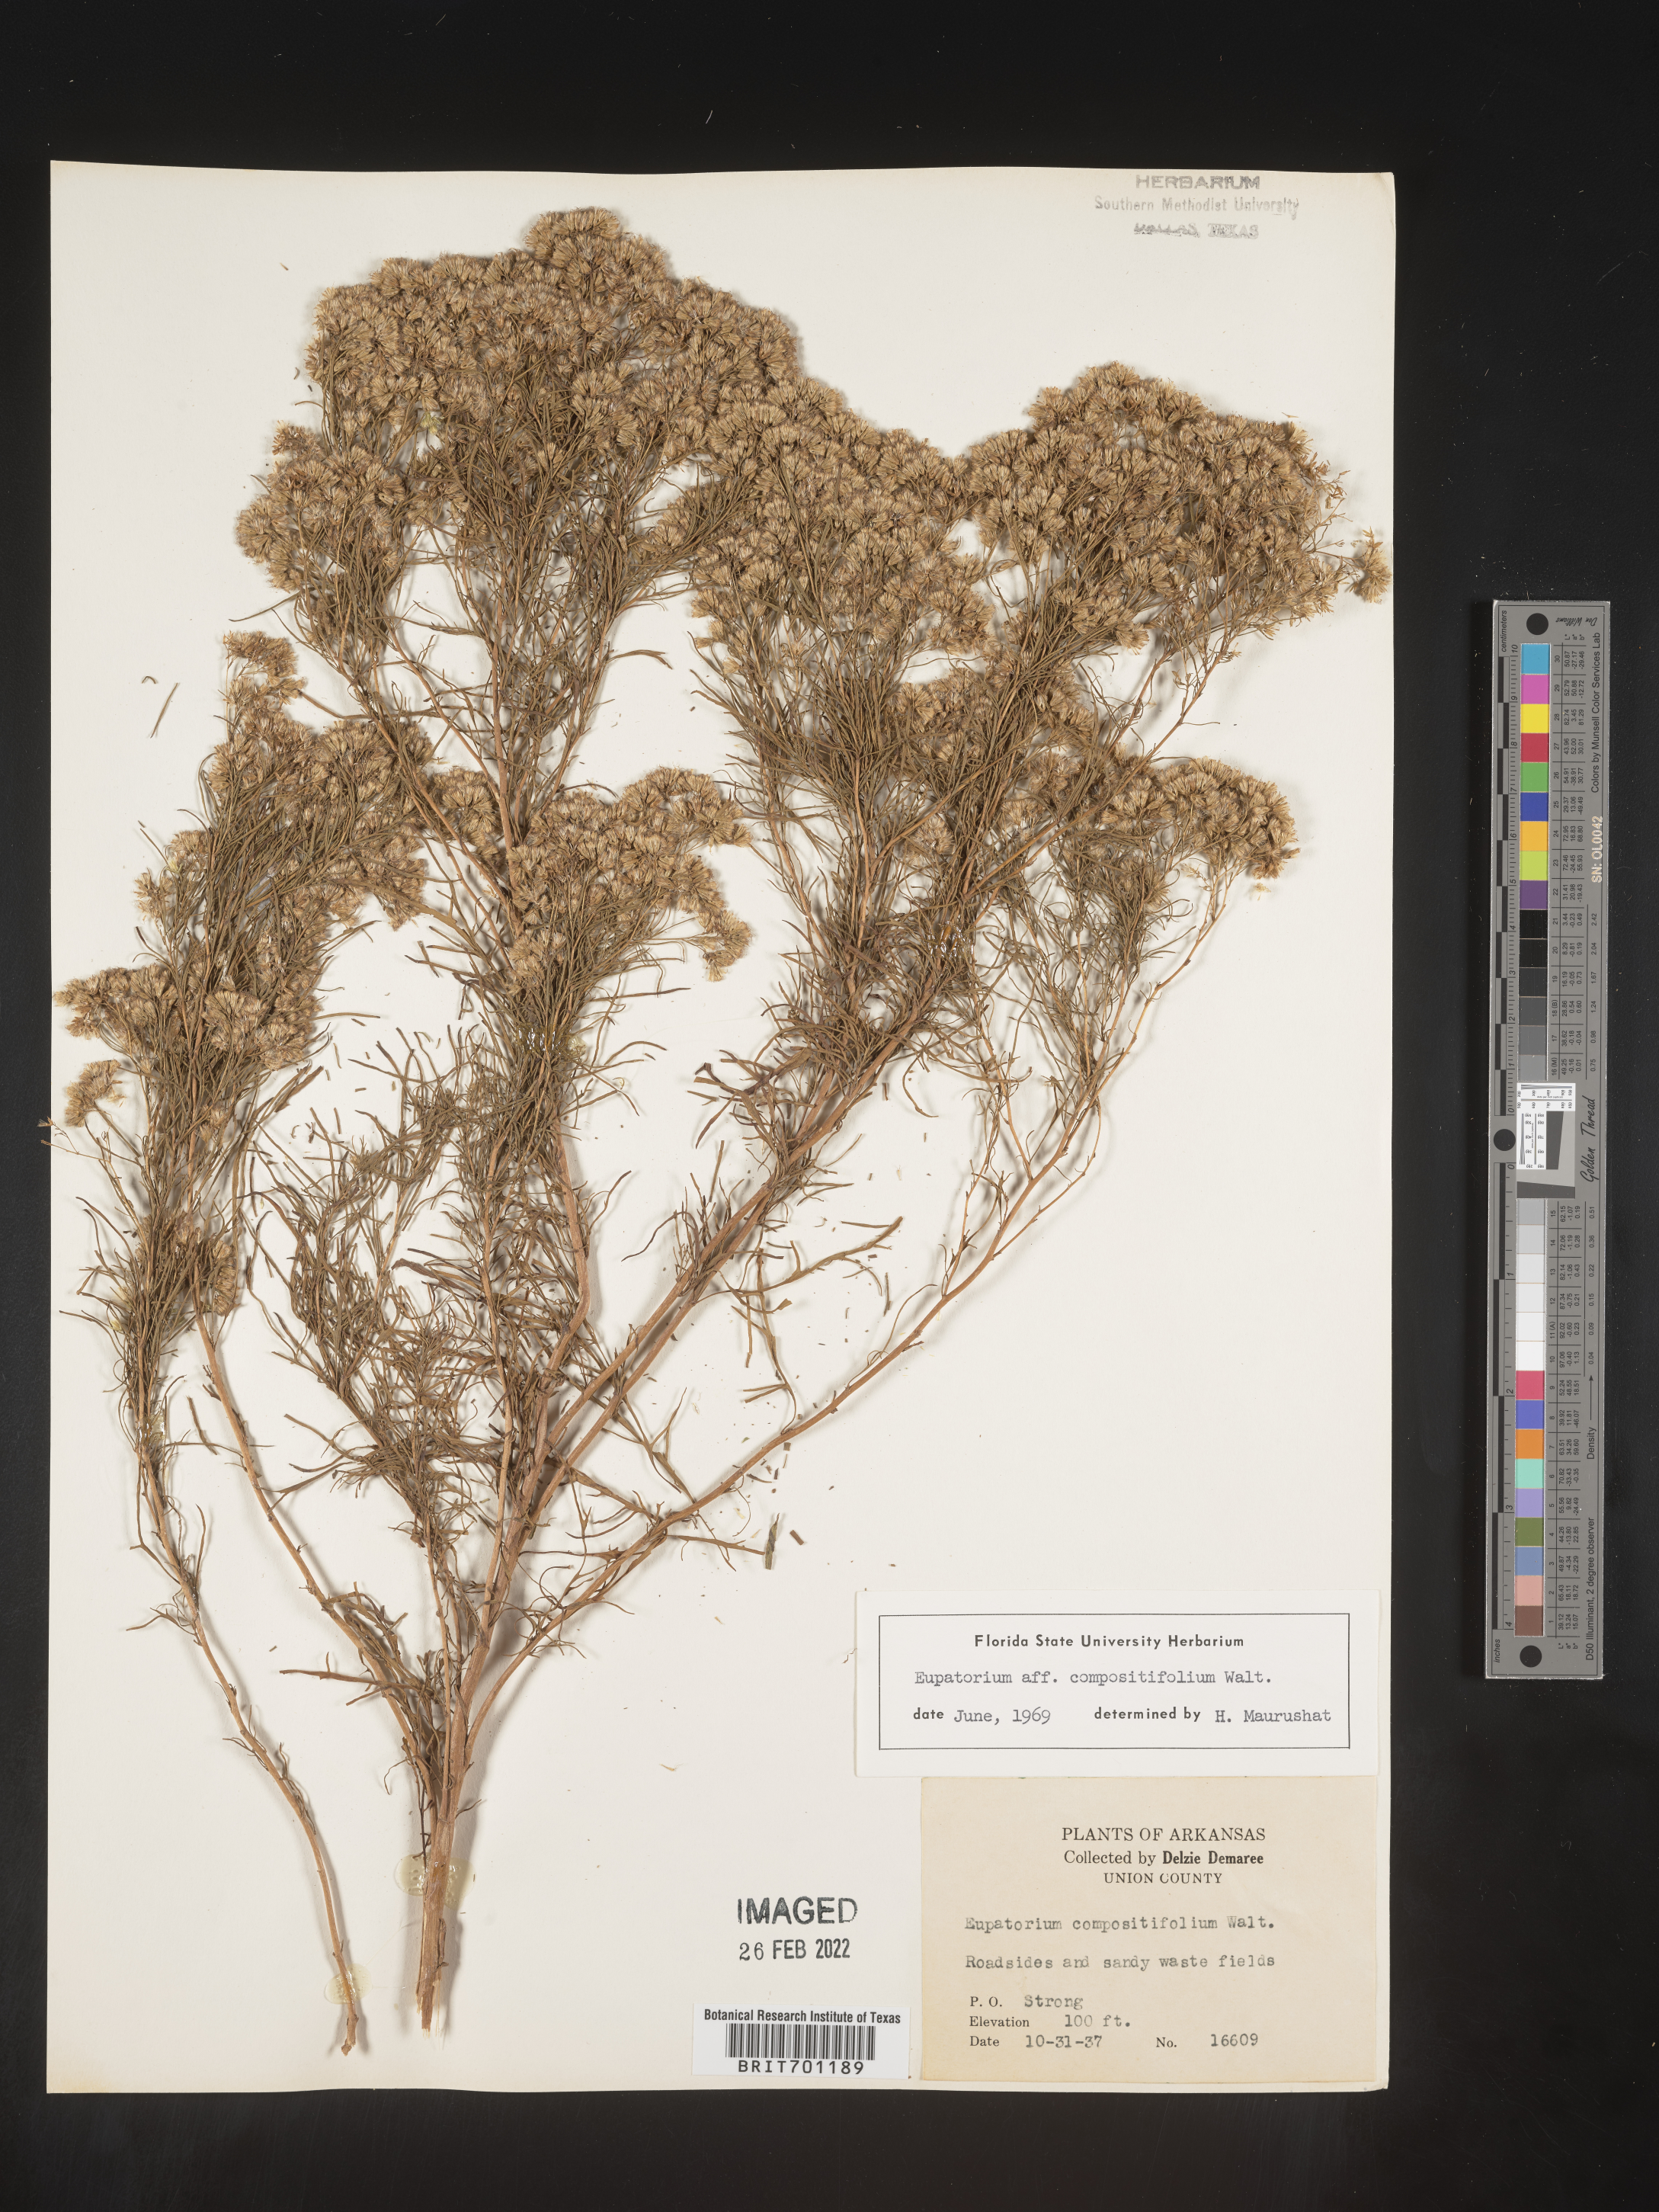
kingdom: Plantae
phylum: Tracheophyta
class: Magnoliopsida
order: Asterales
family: Asteraceae
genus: Eupatorium
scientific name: Eupatorium compositifolium
